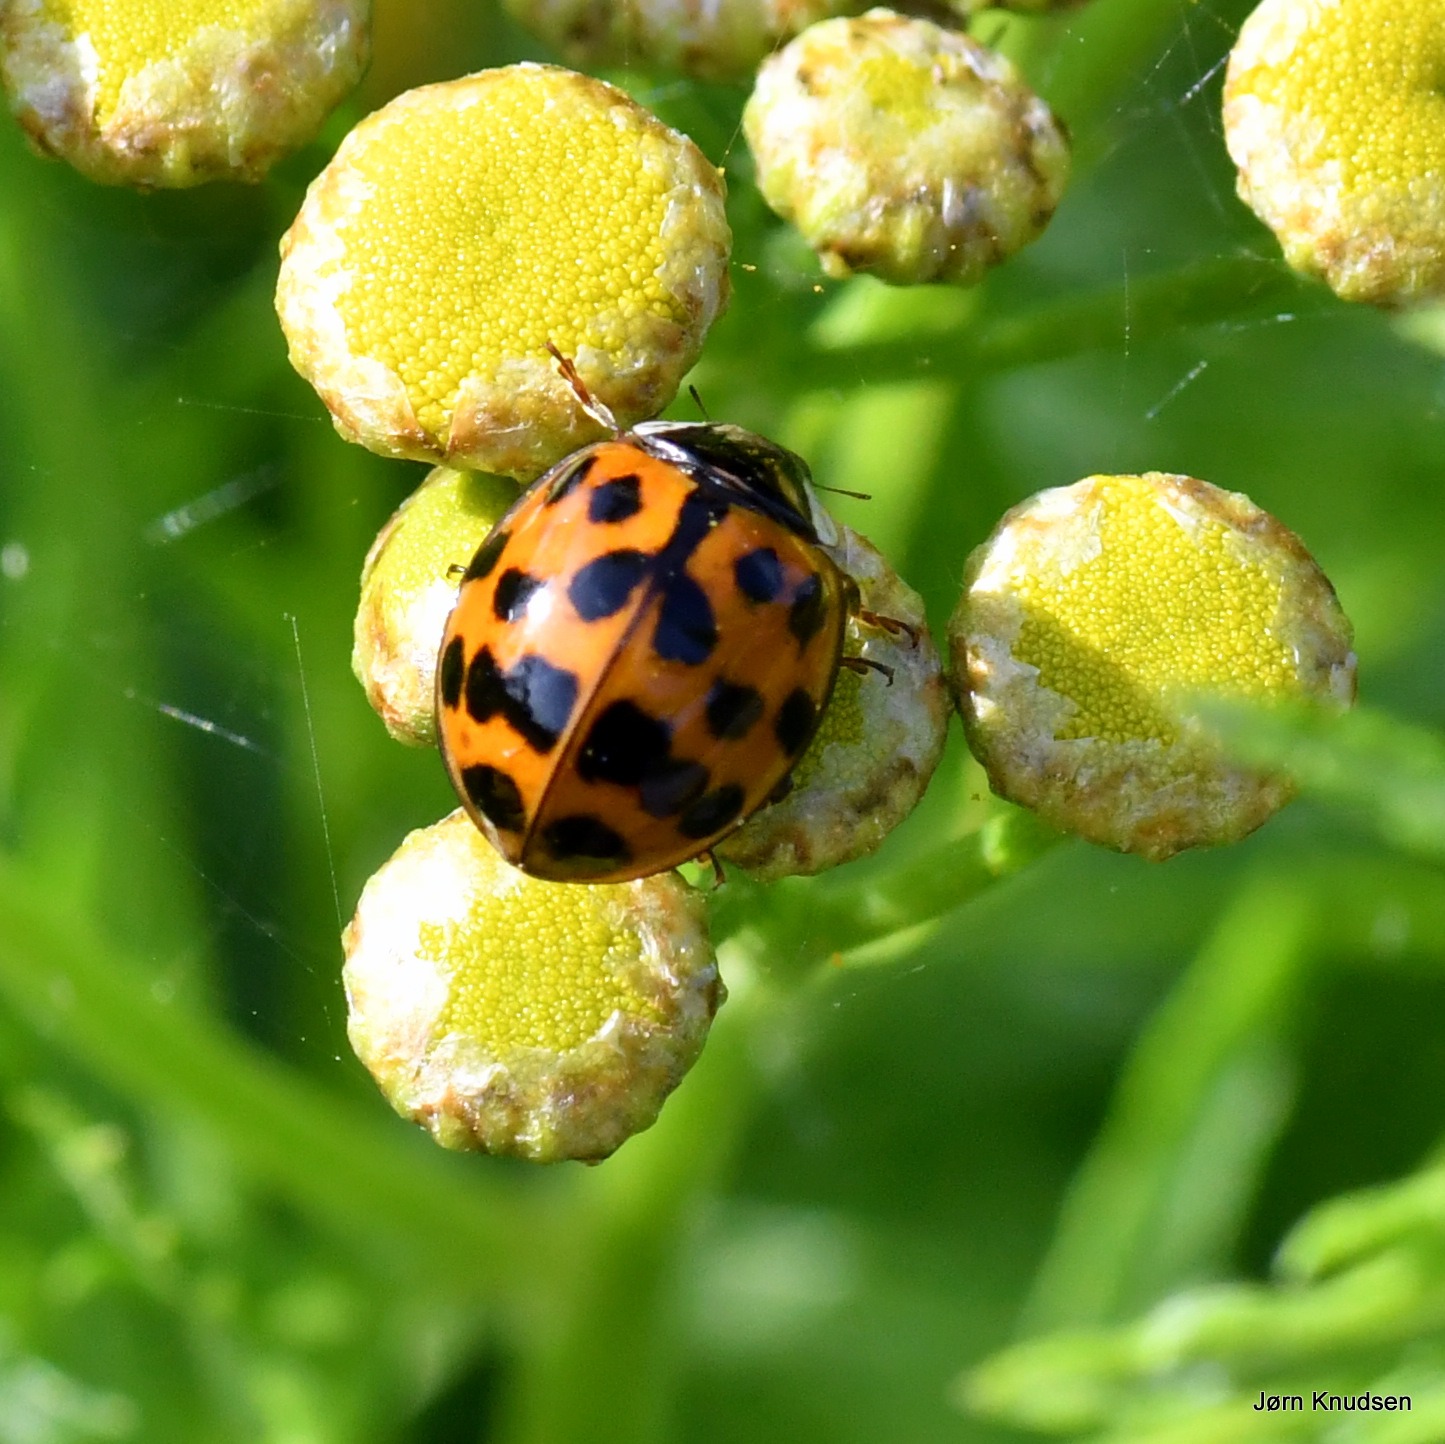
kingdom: Animalia
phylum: Arthropoda
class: Insecta
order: Coleoptera
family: Coccinellidae
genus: Harmonia
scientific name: Harmonia axyridis
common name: Harlekinmariehøne
